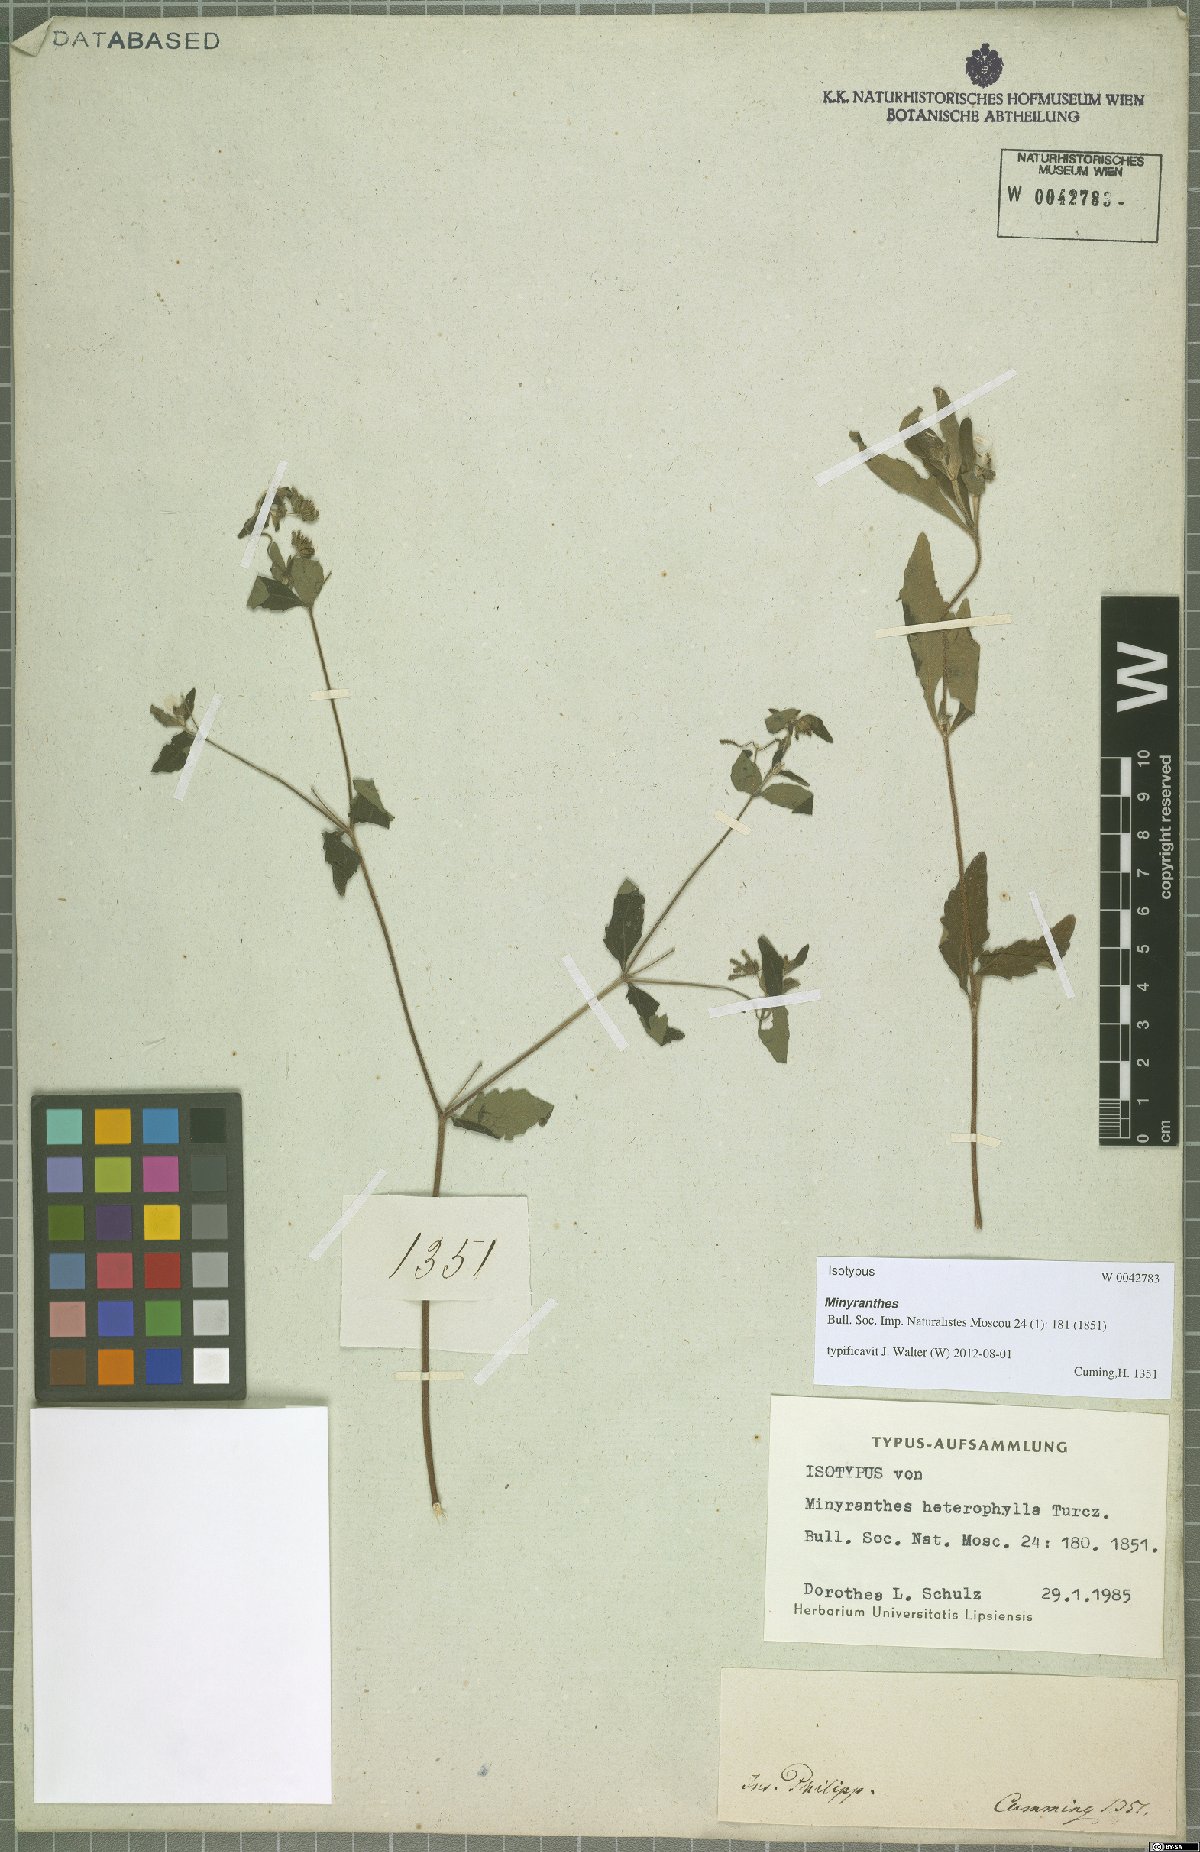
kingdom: Plantae
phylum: Tracheophyta
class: Magnoliopsida
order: Asterales
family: Asteraceae
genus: Sigesbeckia
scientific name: Sigesbeckia orientalis
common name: Eastern st paul's-wort
